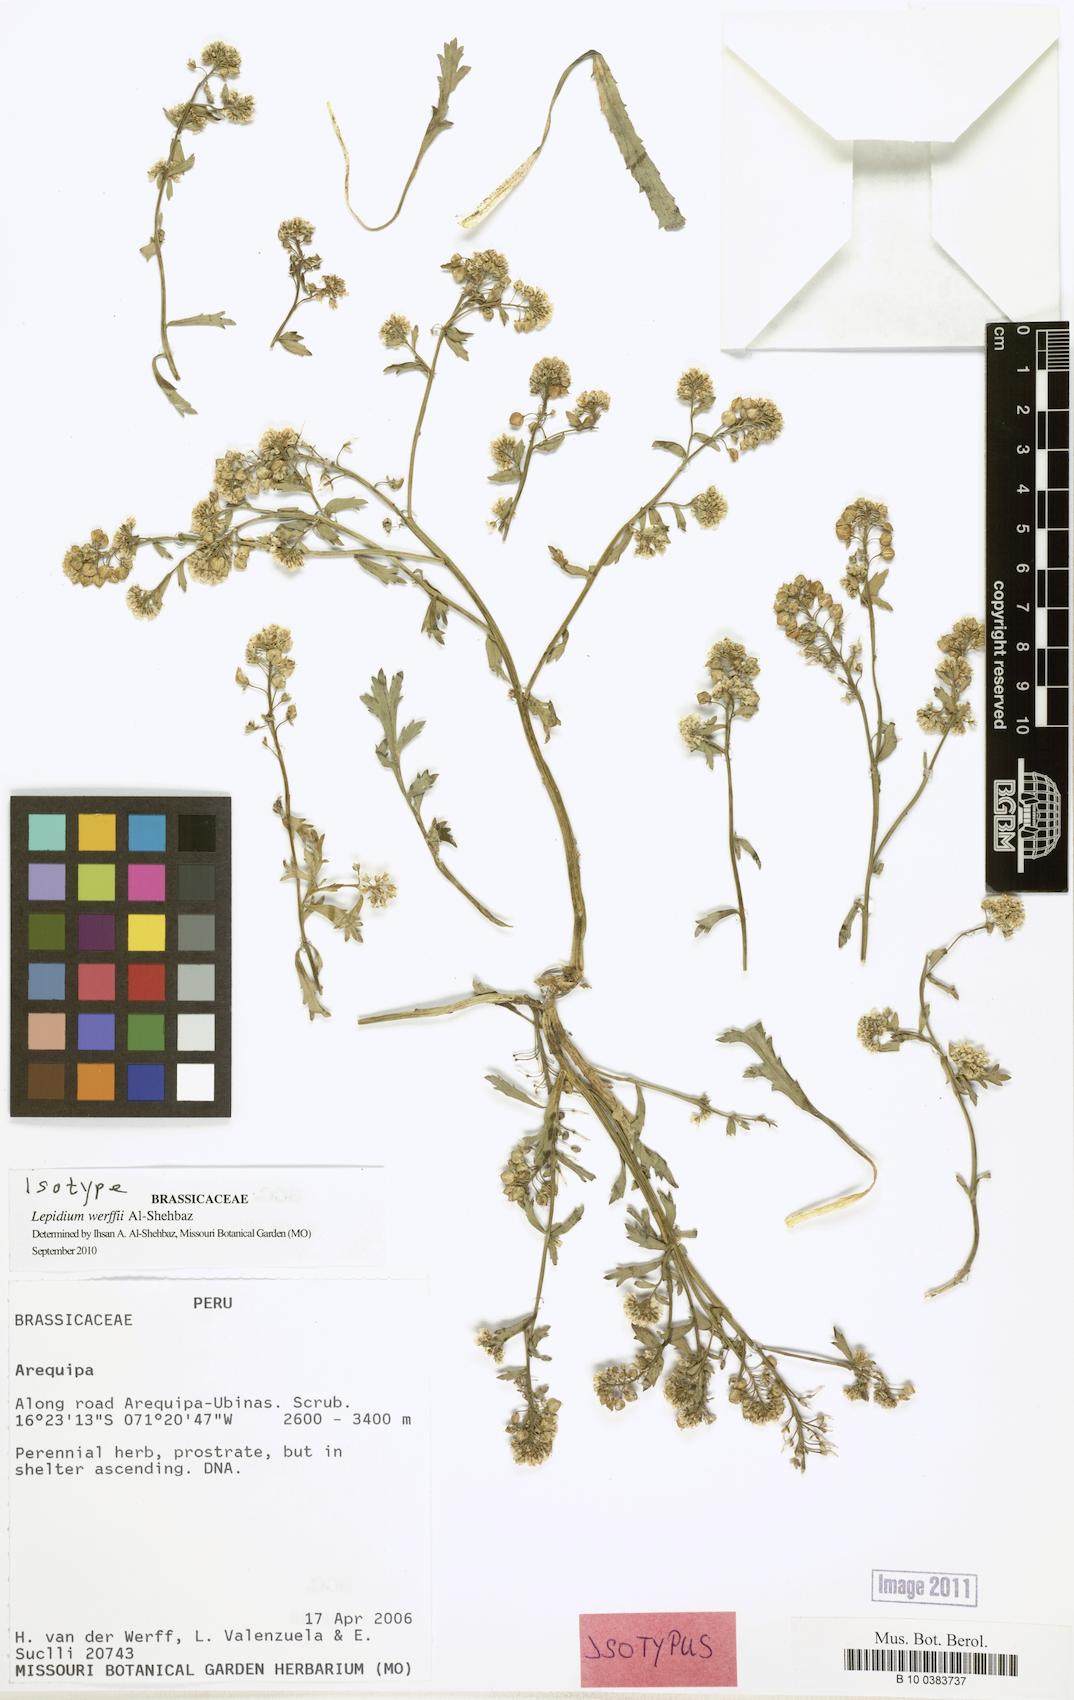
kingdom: Plantae
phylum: Tracheophyta
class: Magnoliopsida
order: Brassicales
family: Brassicaceae
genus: Lepidium
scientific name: Lepidium werffii
